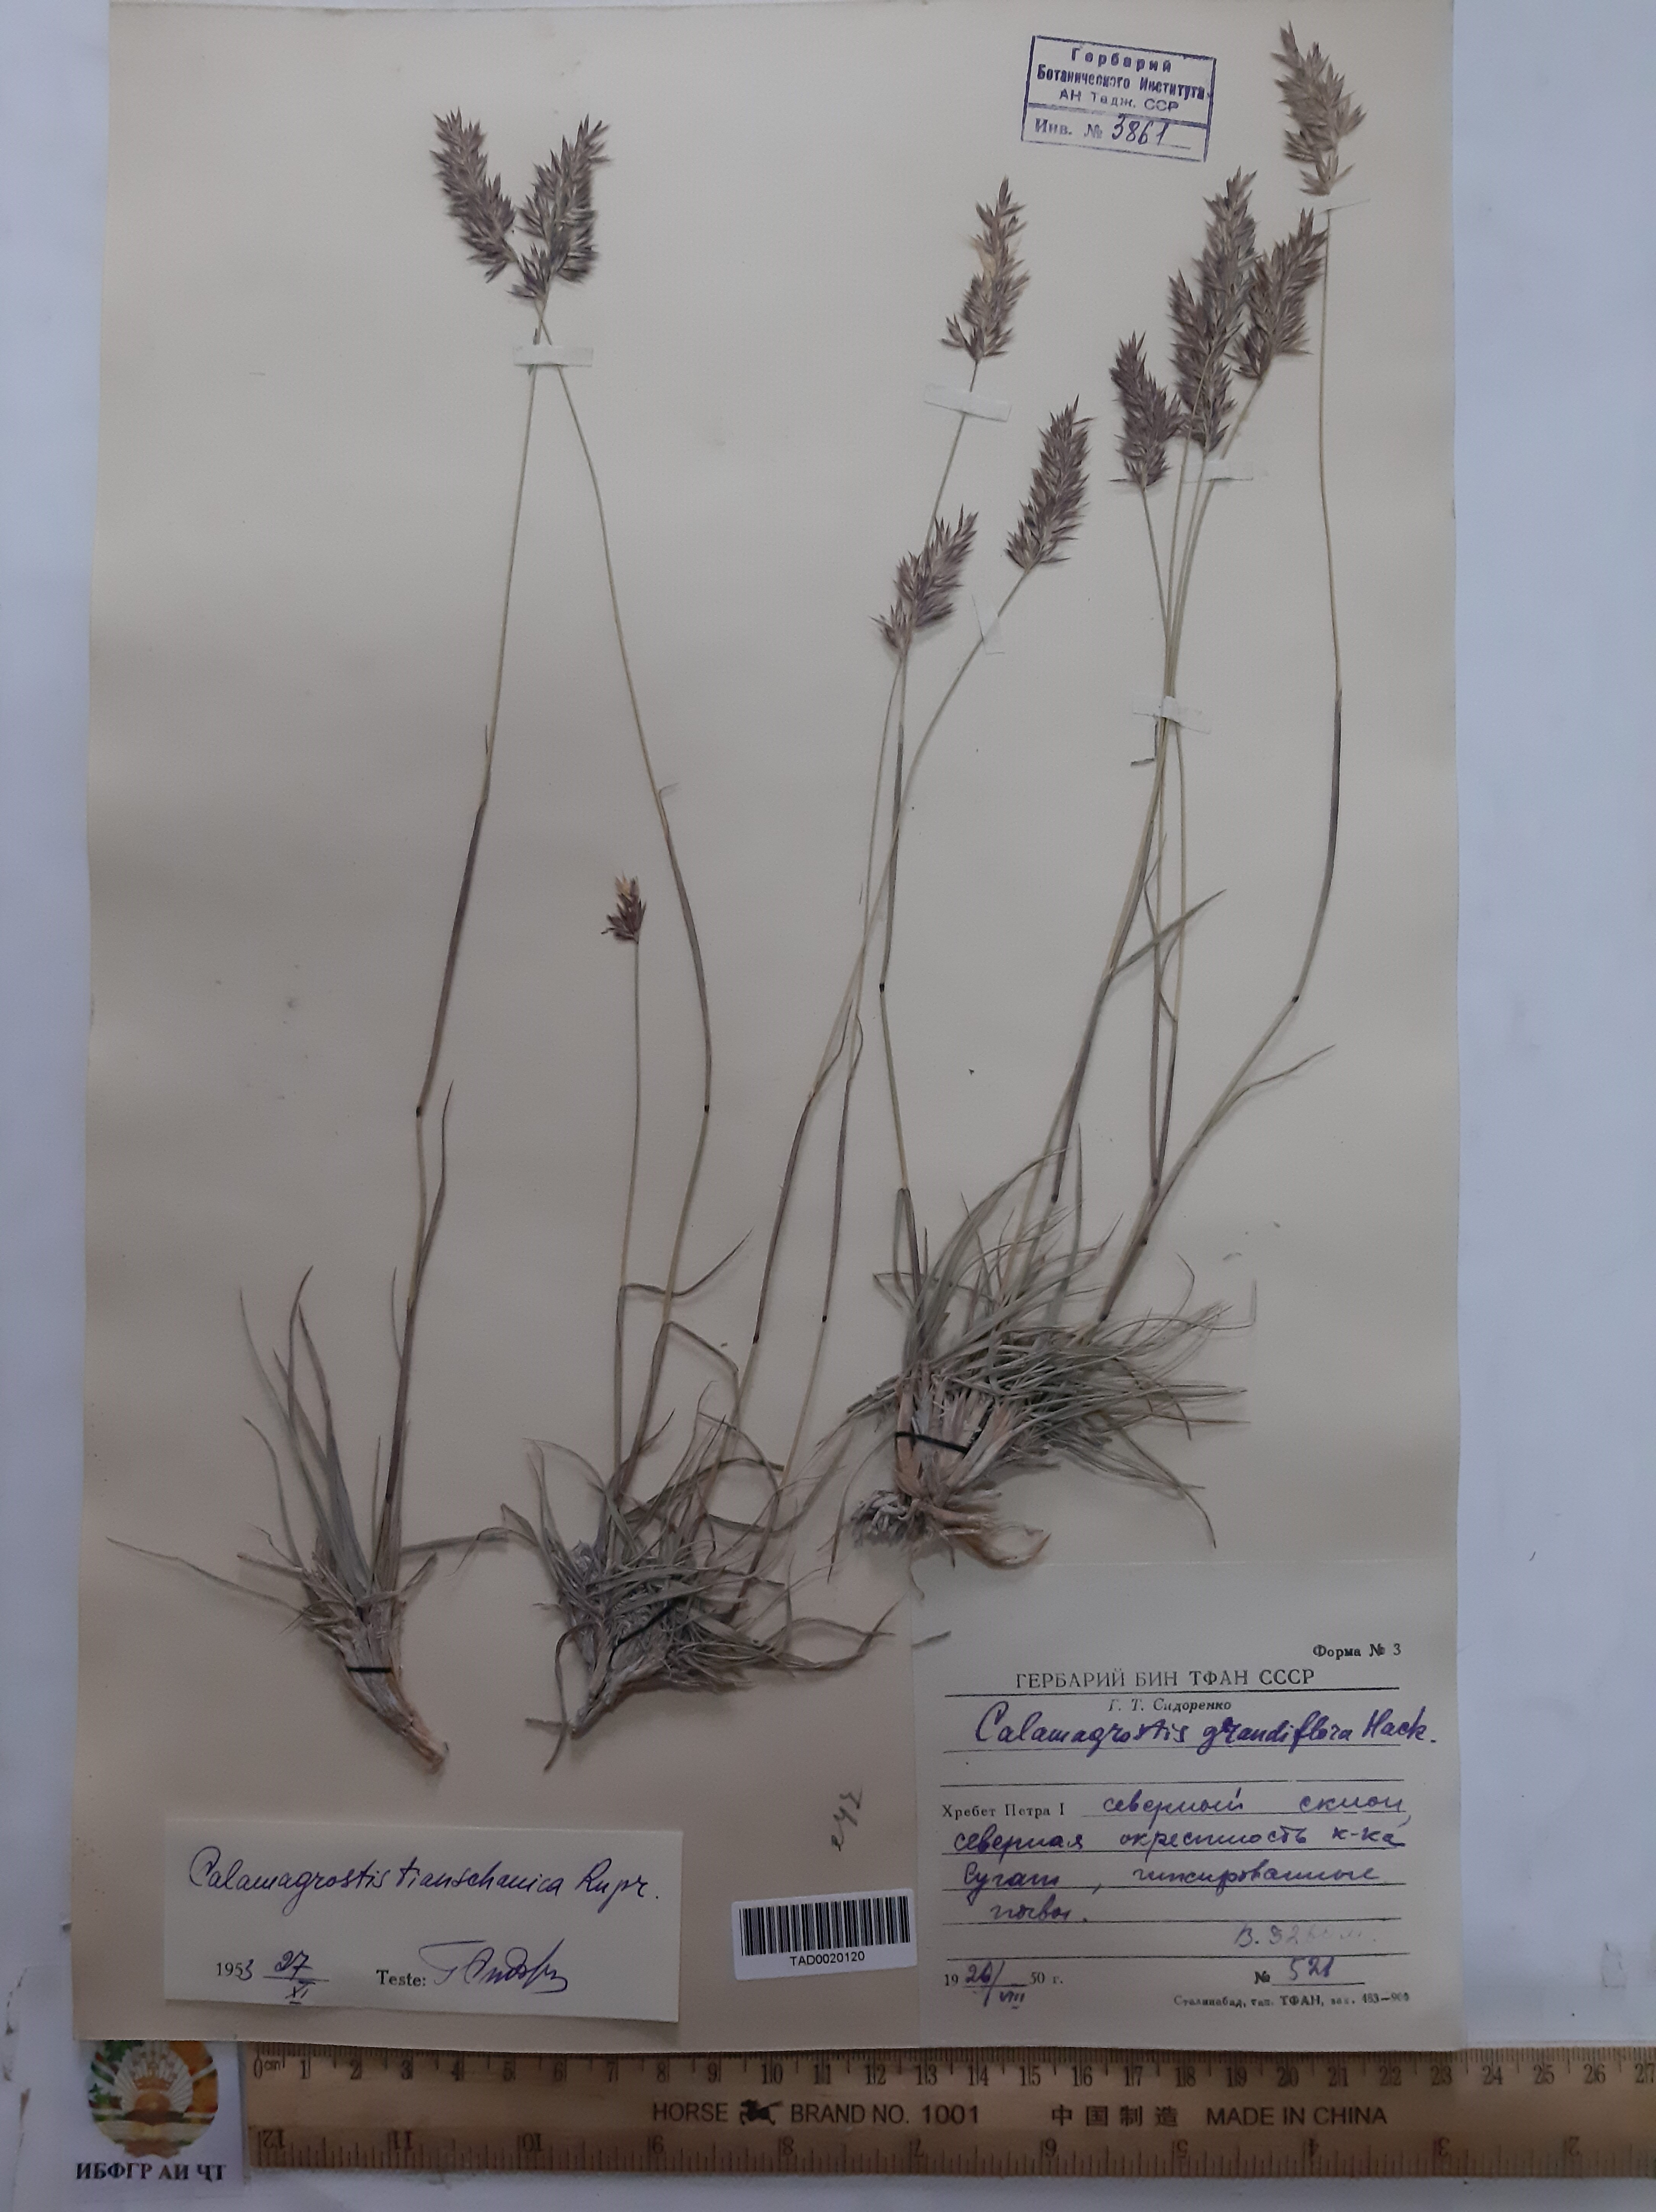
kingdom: Plantae
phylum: Tracheophyta
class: Liliopsida
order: Poales
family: Poaceae
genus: Calamagrostis
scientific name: Calamagrostis holciformis
